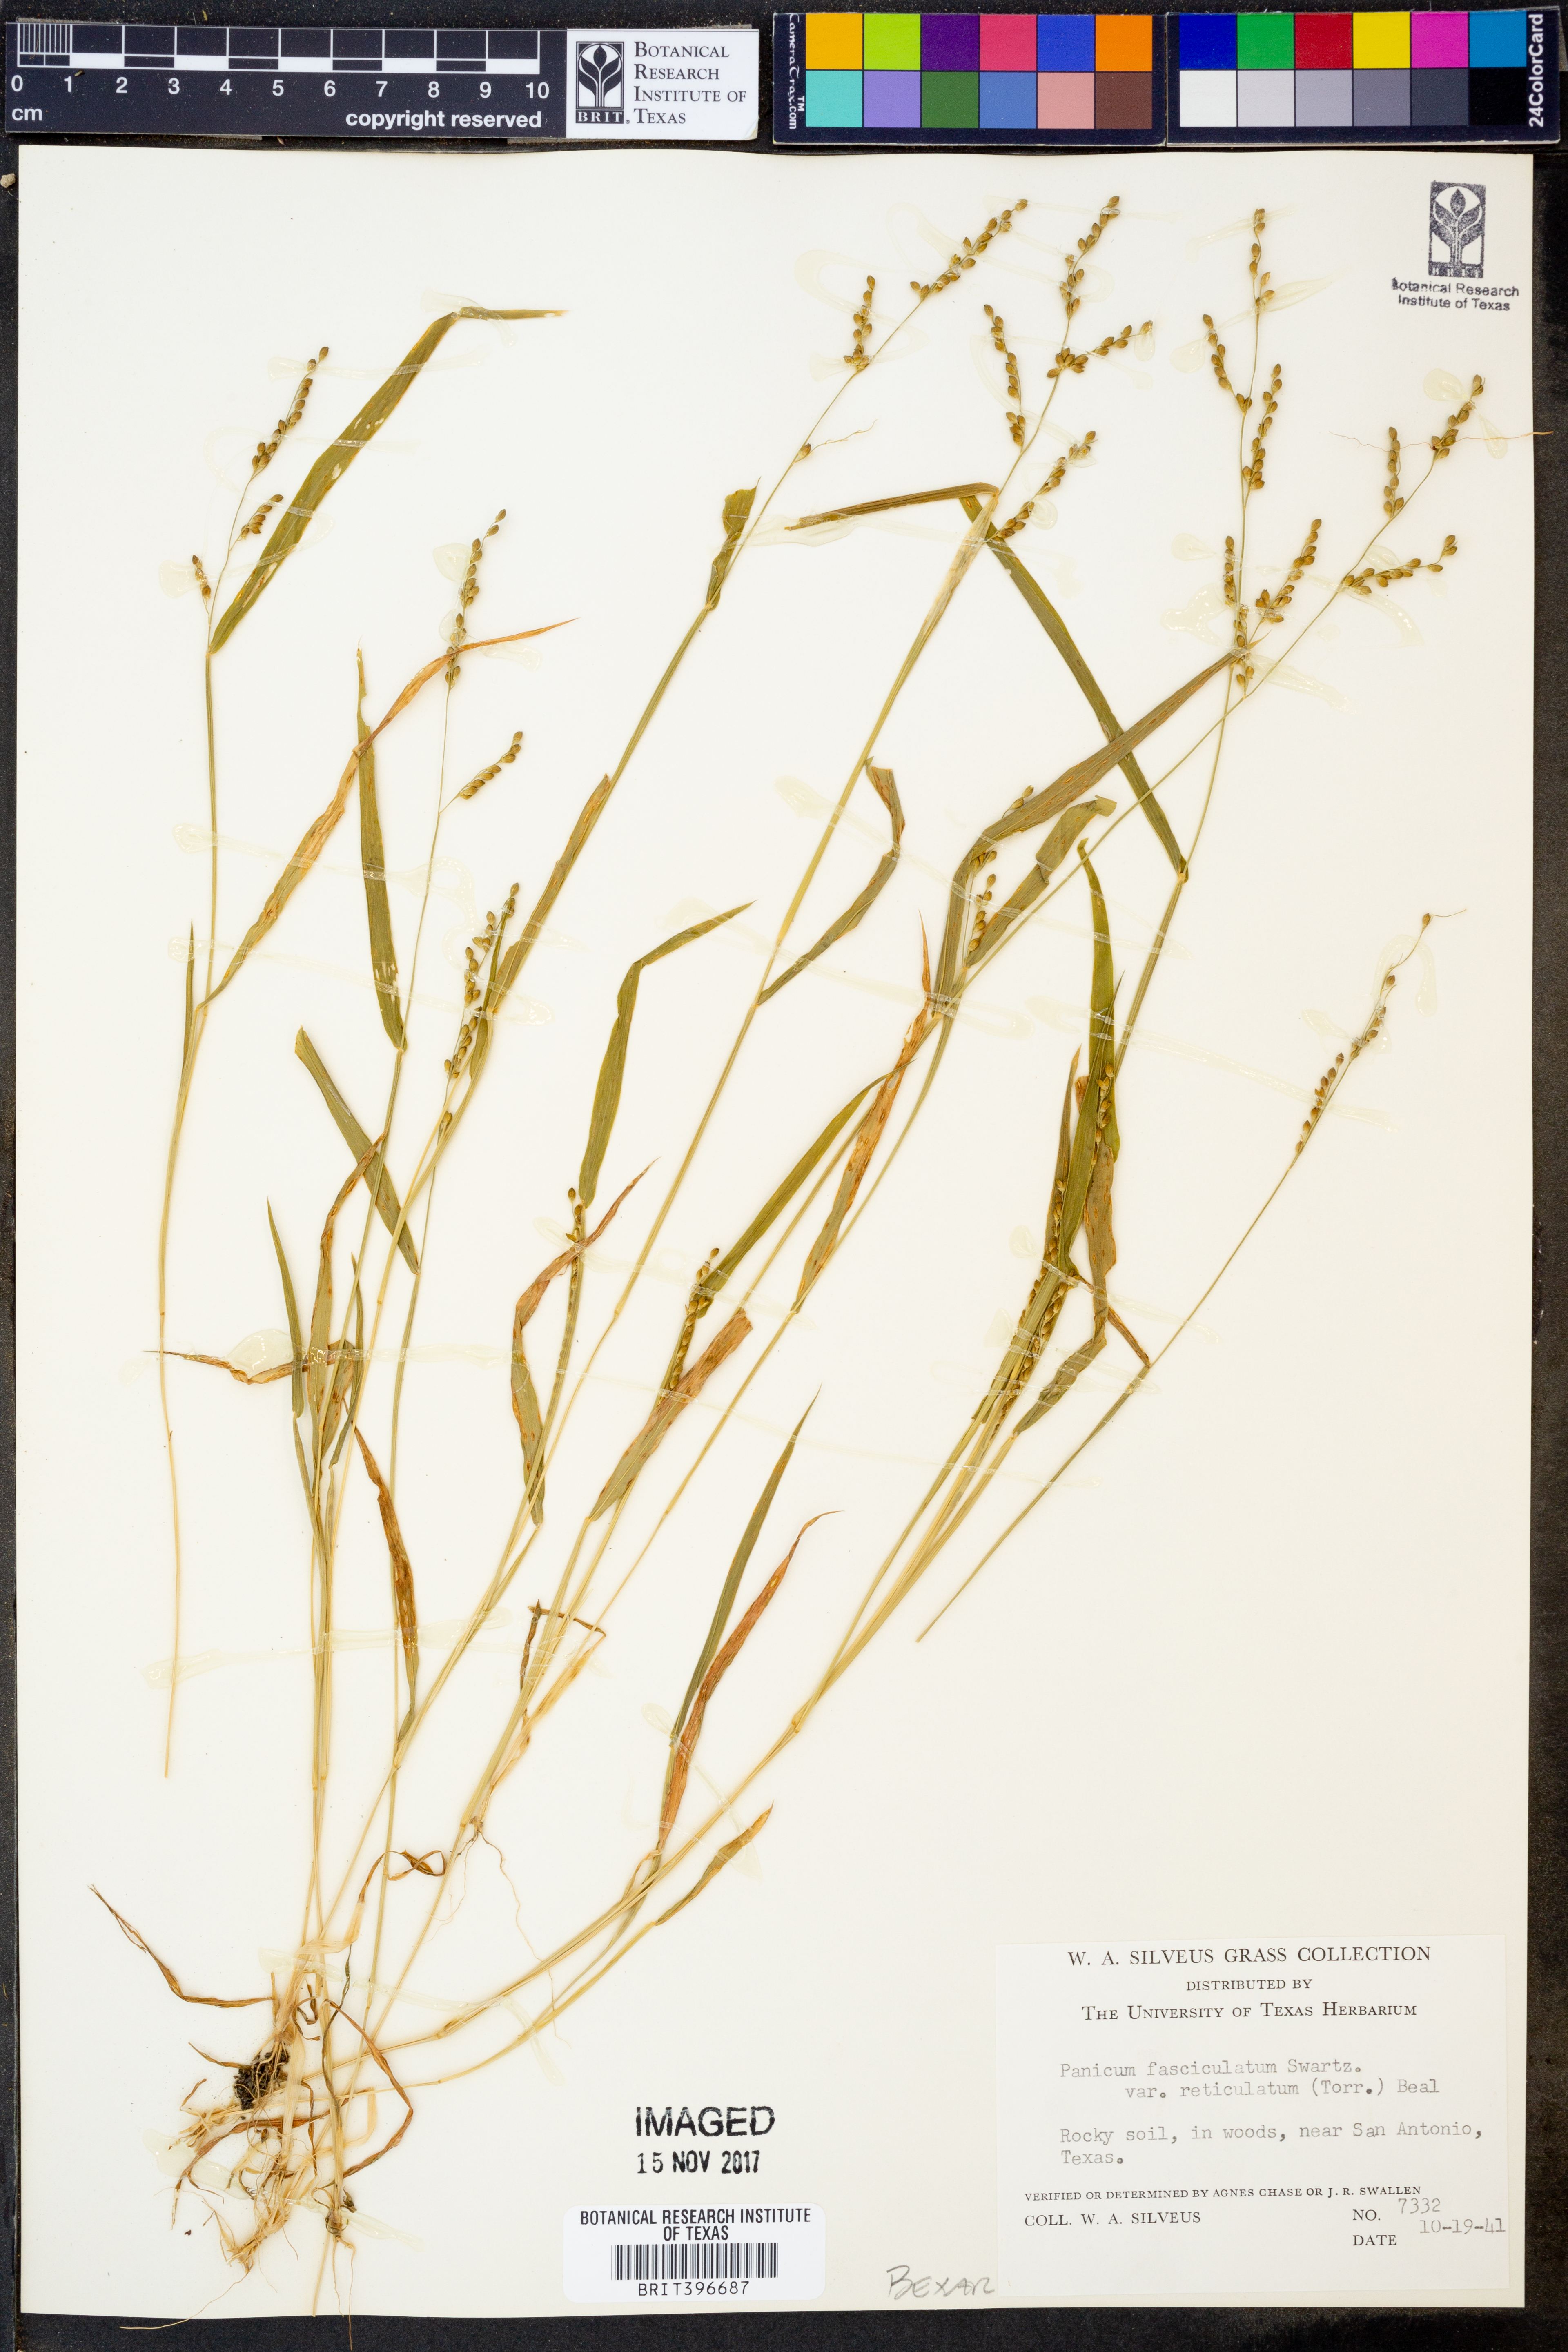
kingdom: Plantae
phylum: Tracheophyta
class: Liliopsida
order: Poales
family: Poaceae
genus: Urochloa
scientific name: Urochloa fusca
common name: Browntop signal grass
